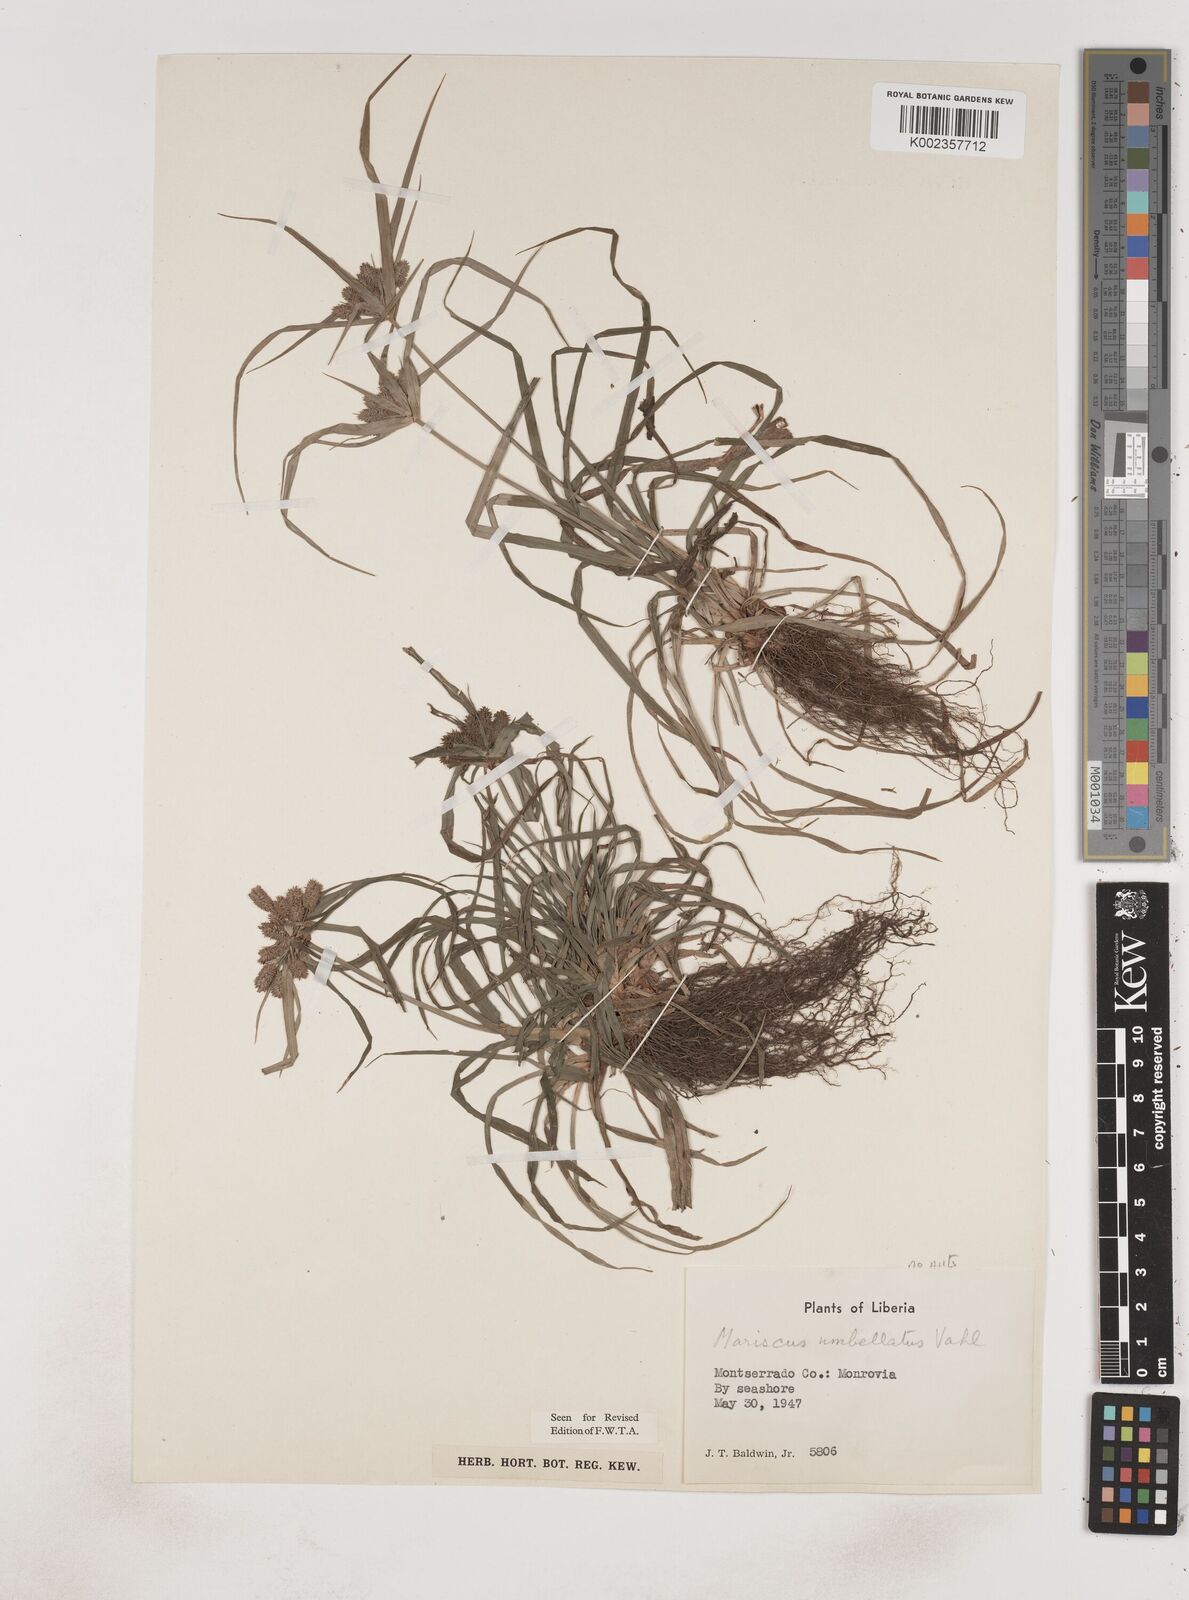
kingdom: Plantae
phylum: Tracheophyta
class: Liliopsida
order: Poales
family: Cyperaceae
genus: Cyperus
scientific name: Cyperus sublimis
